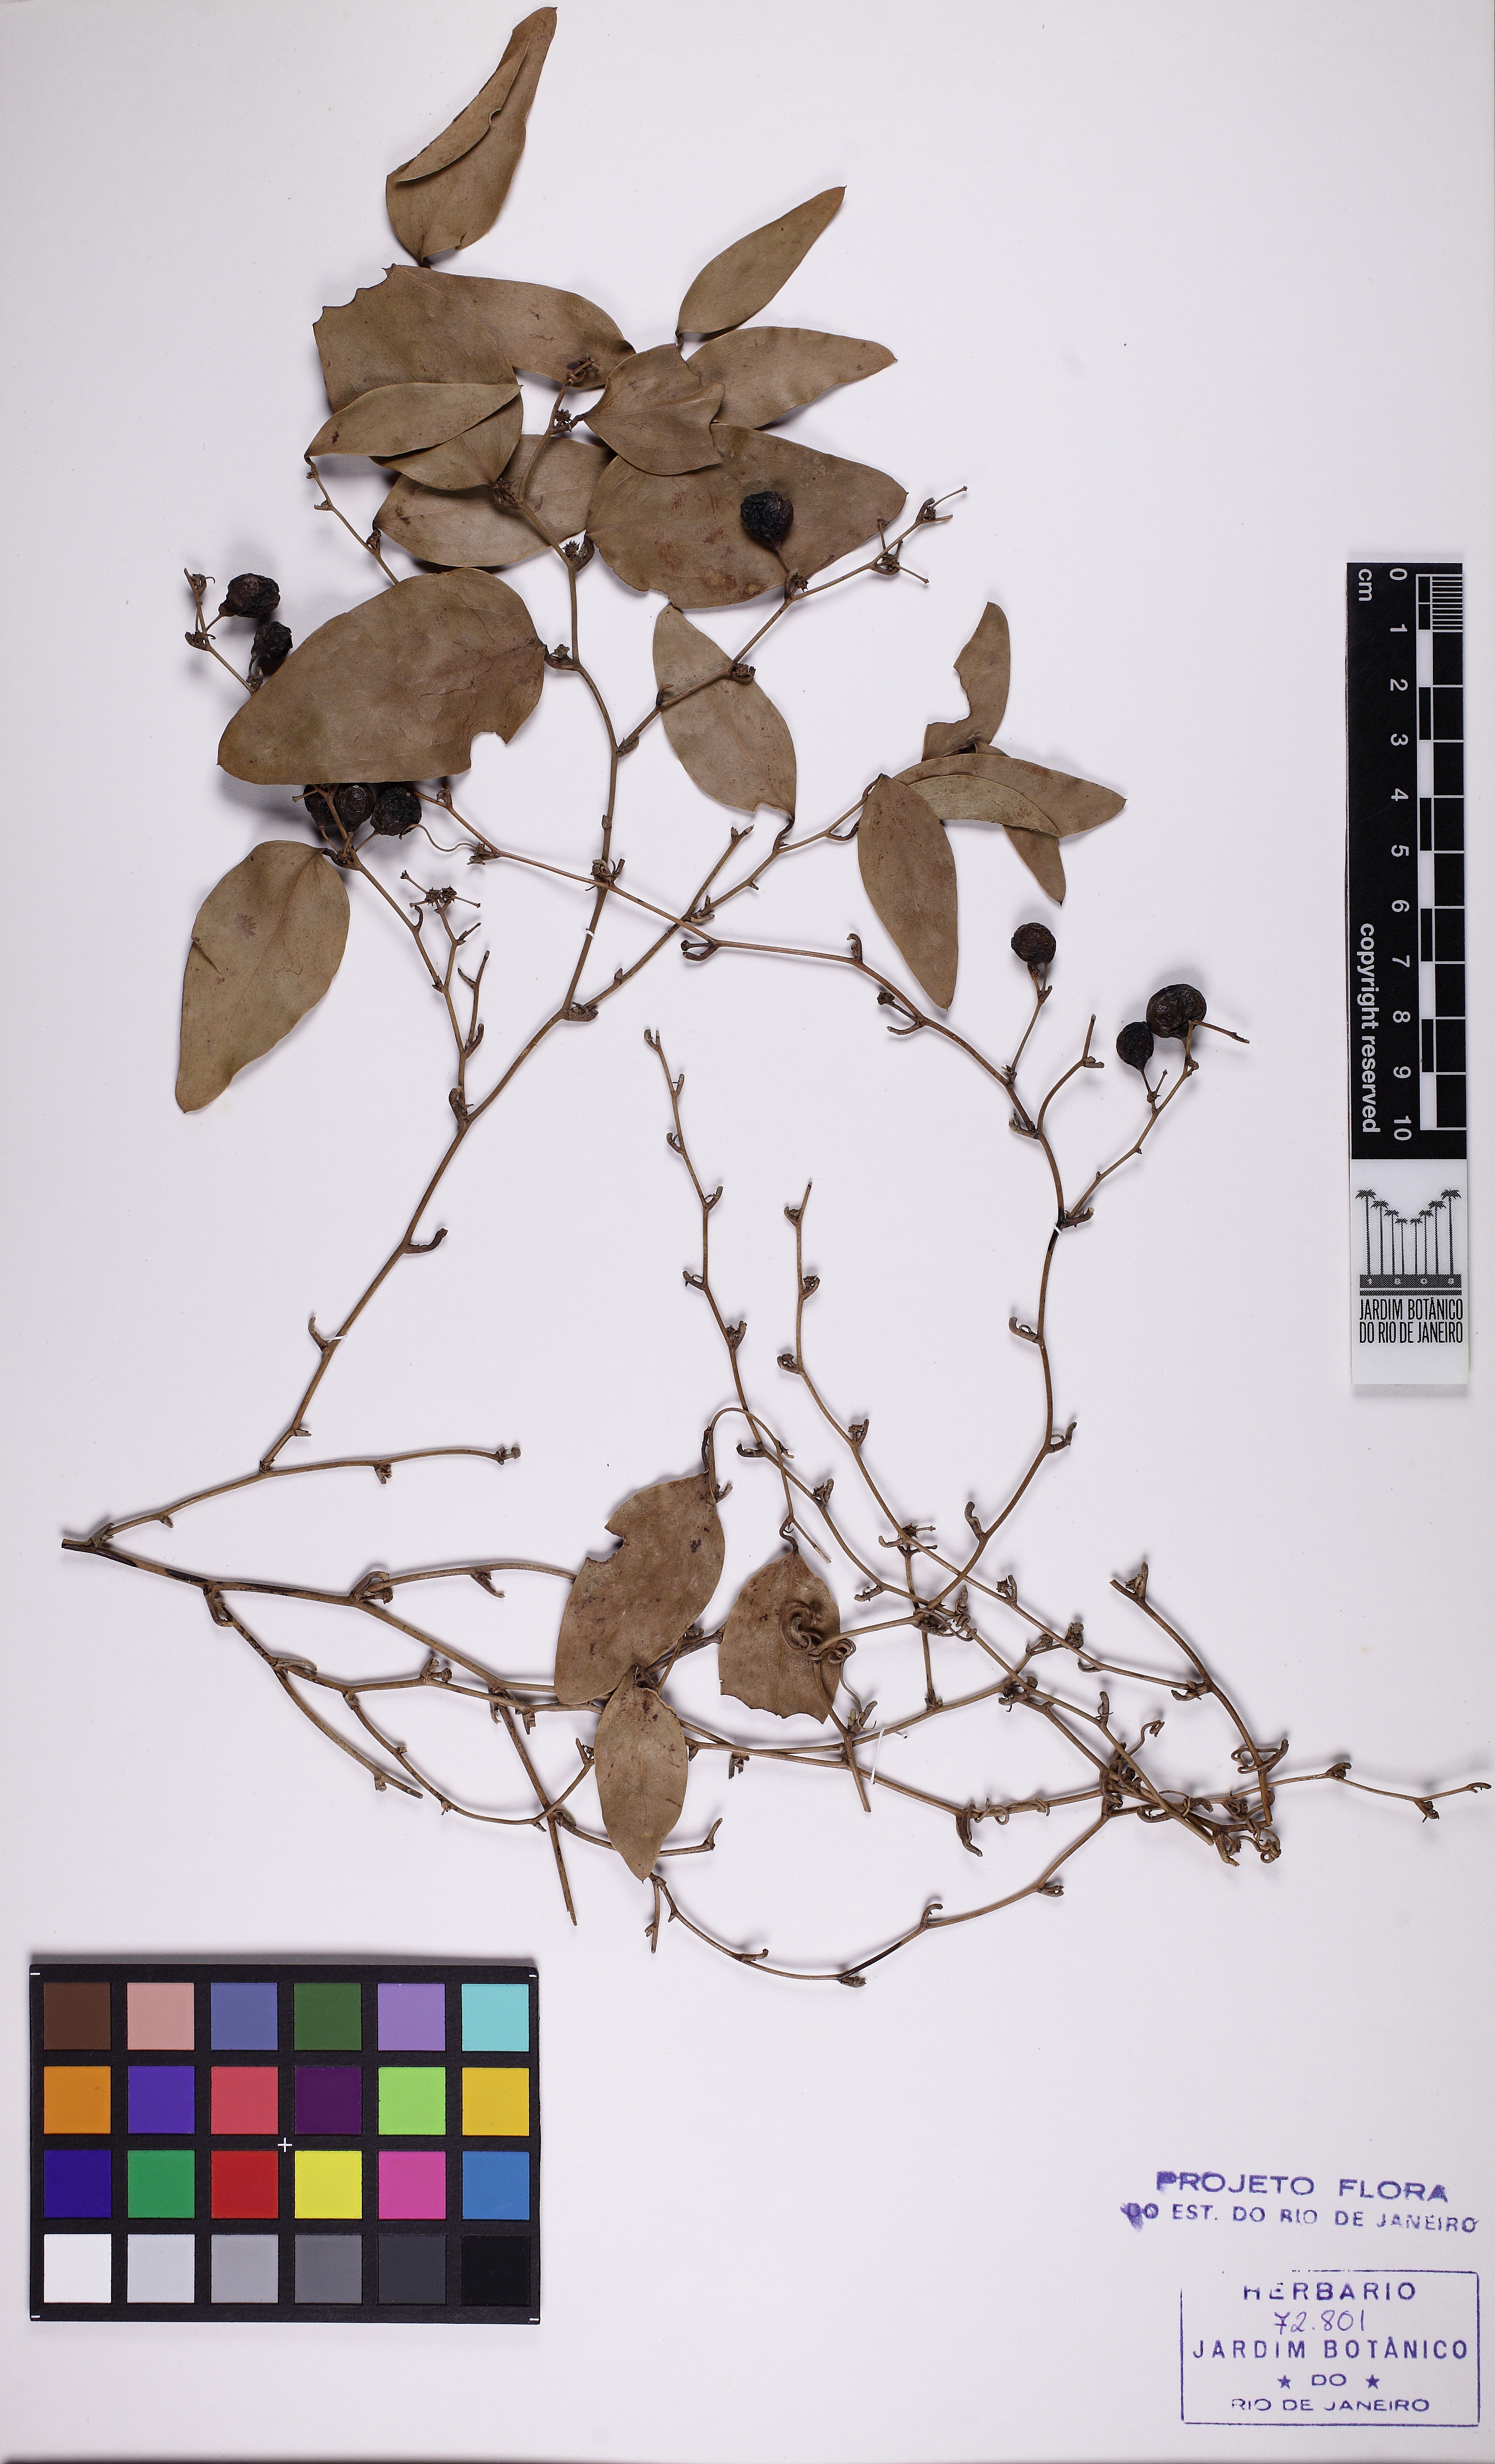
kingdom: Plantae
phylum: Tracheophyta
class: Liliopsida
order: Liliales
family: Smilacaceae
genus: Smilax
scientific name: Smilax elastica
